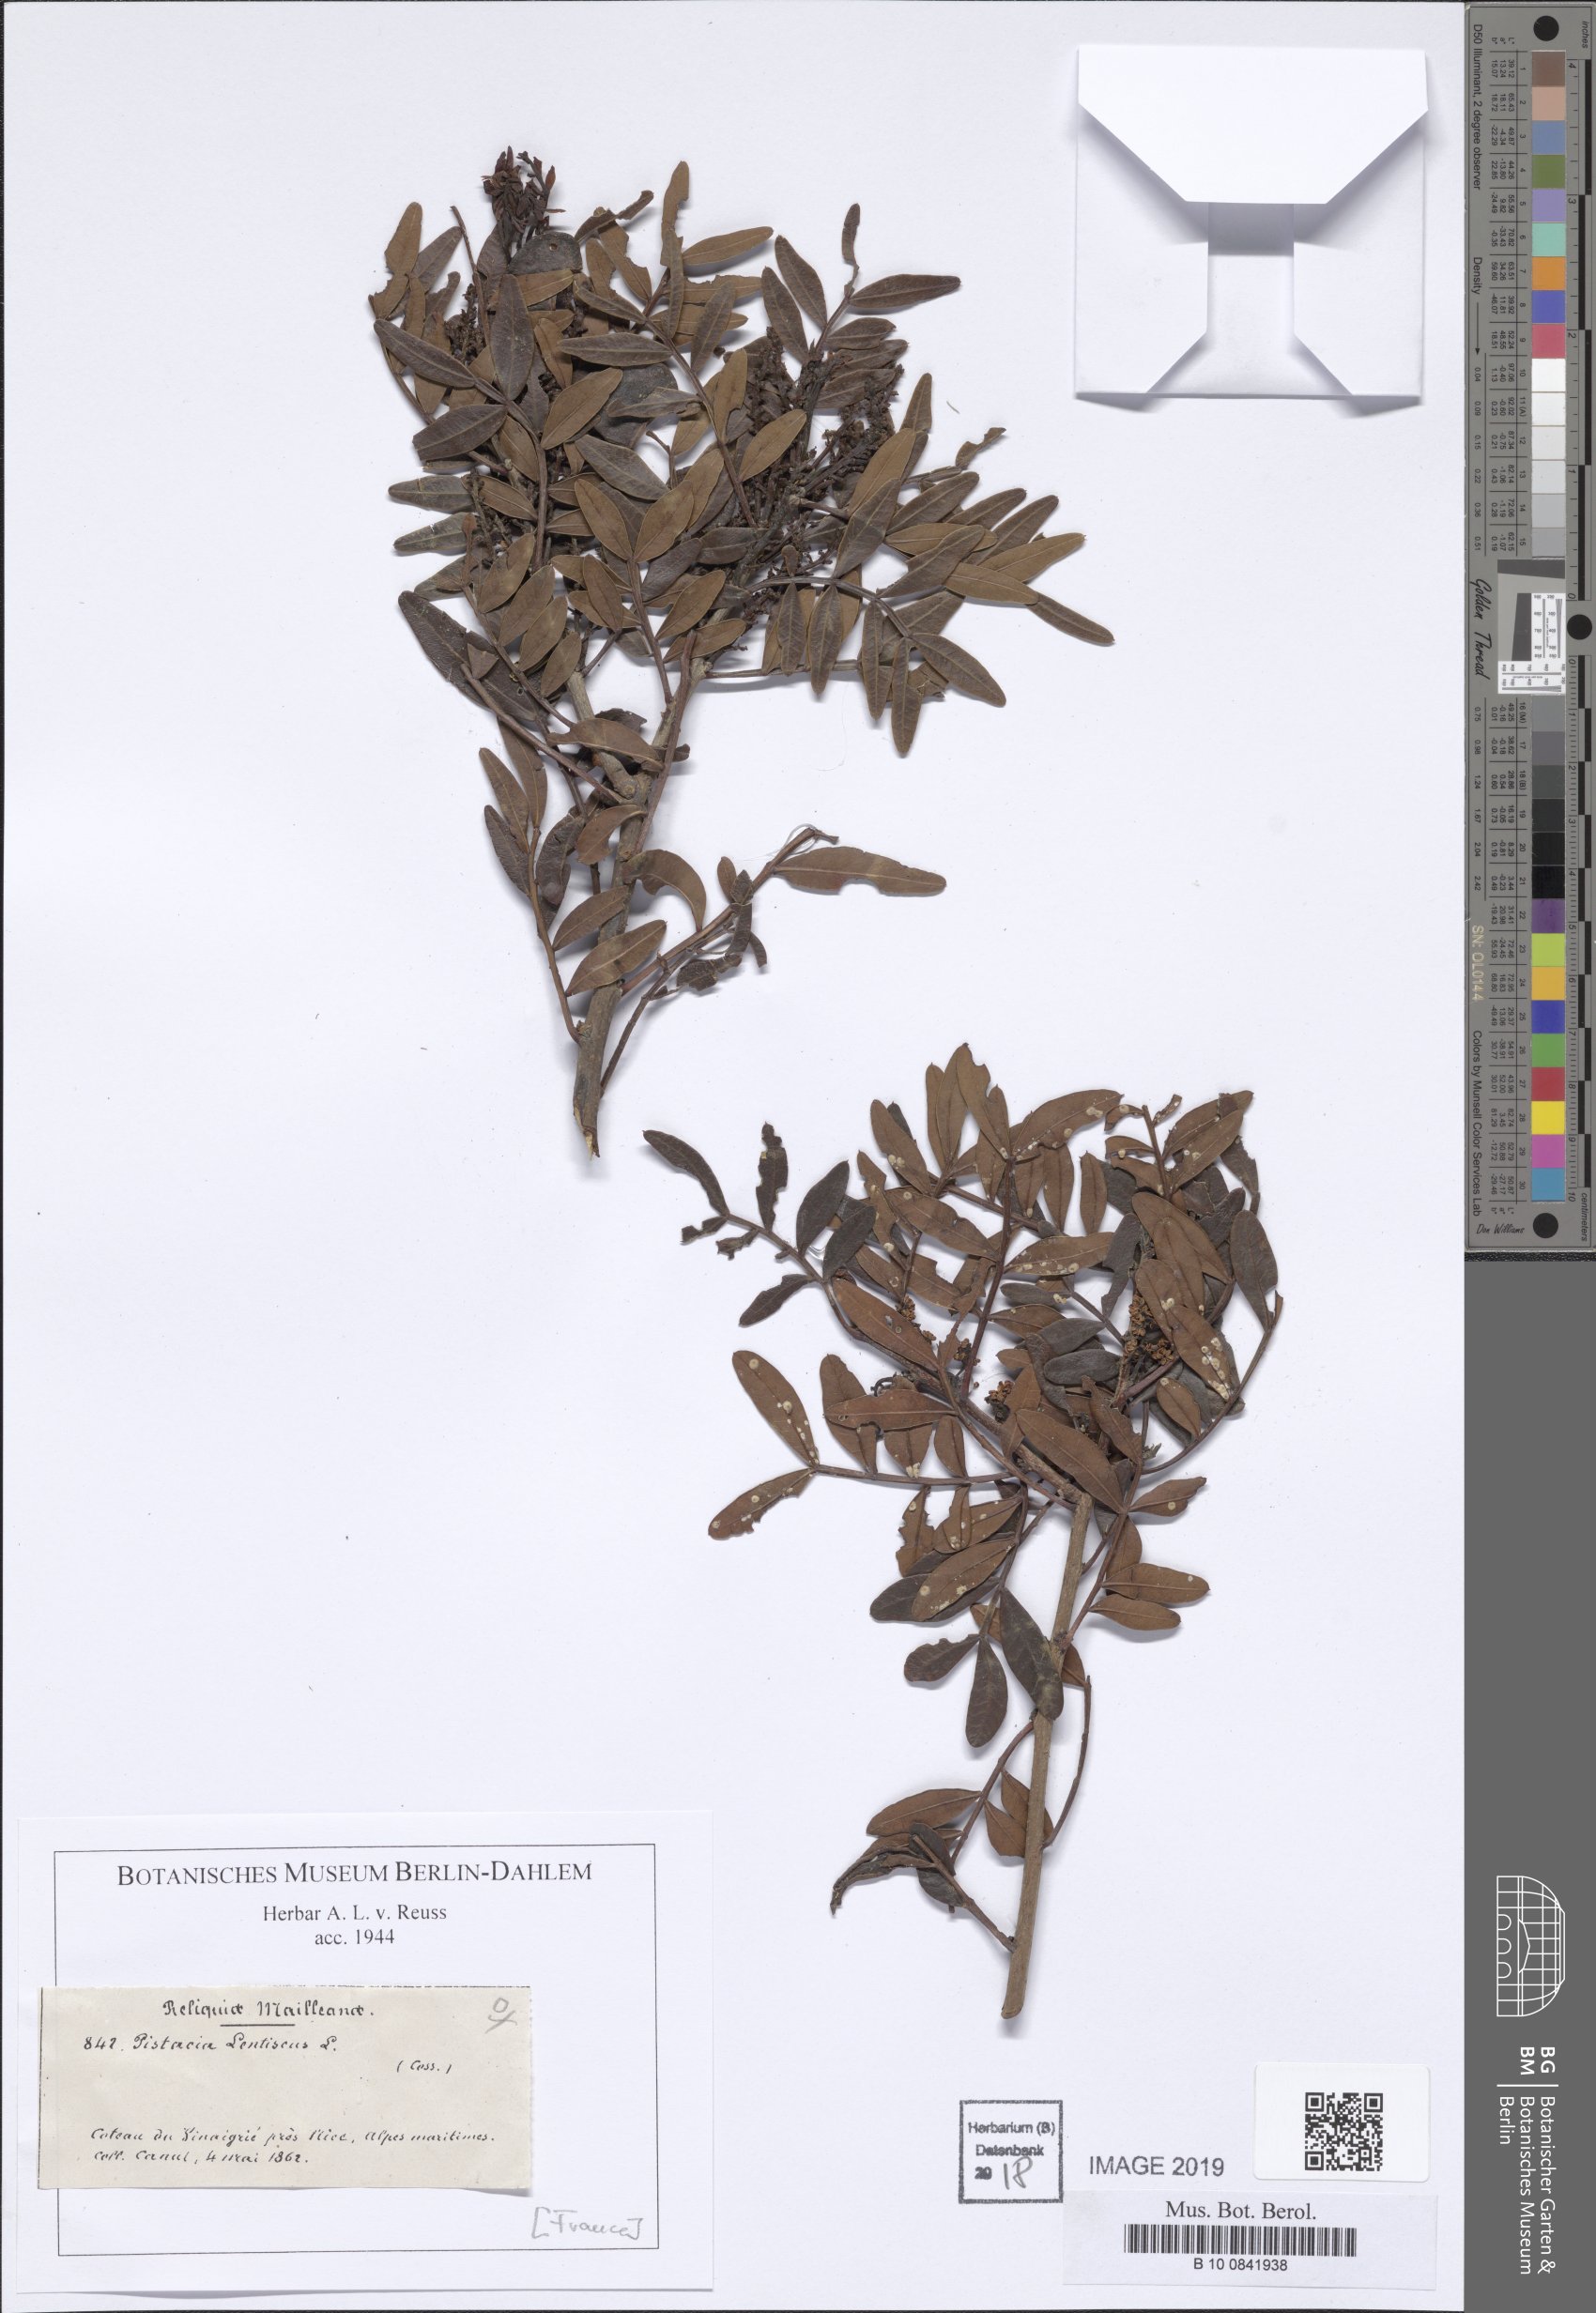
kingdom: Plantae
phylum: Tracheophyta
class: Magnoliopsida
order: Sapindales
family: Anacardiaceae
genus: Pistacia
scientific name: Pistacia lentiscus
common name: Lentisk
